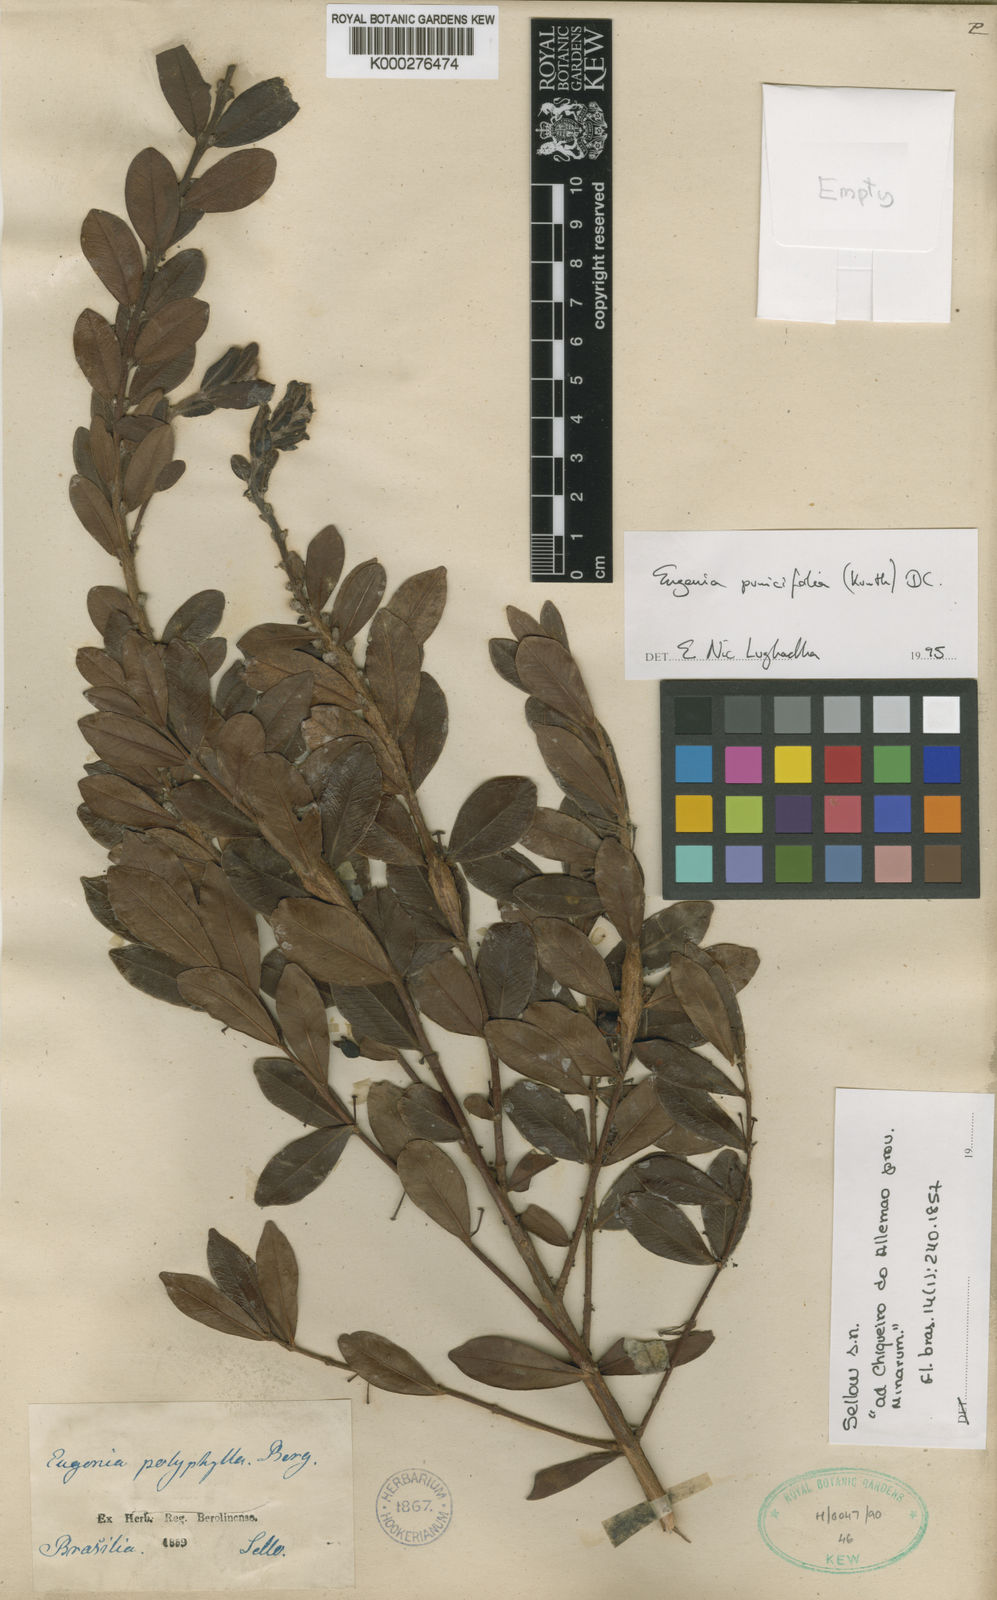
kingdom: Plantae
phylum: Tracheophyta
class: Magnoliopsida
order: Myrtales
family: Myrtaceae
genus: Eugenia
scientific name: Eugenia punicifolia
